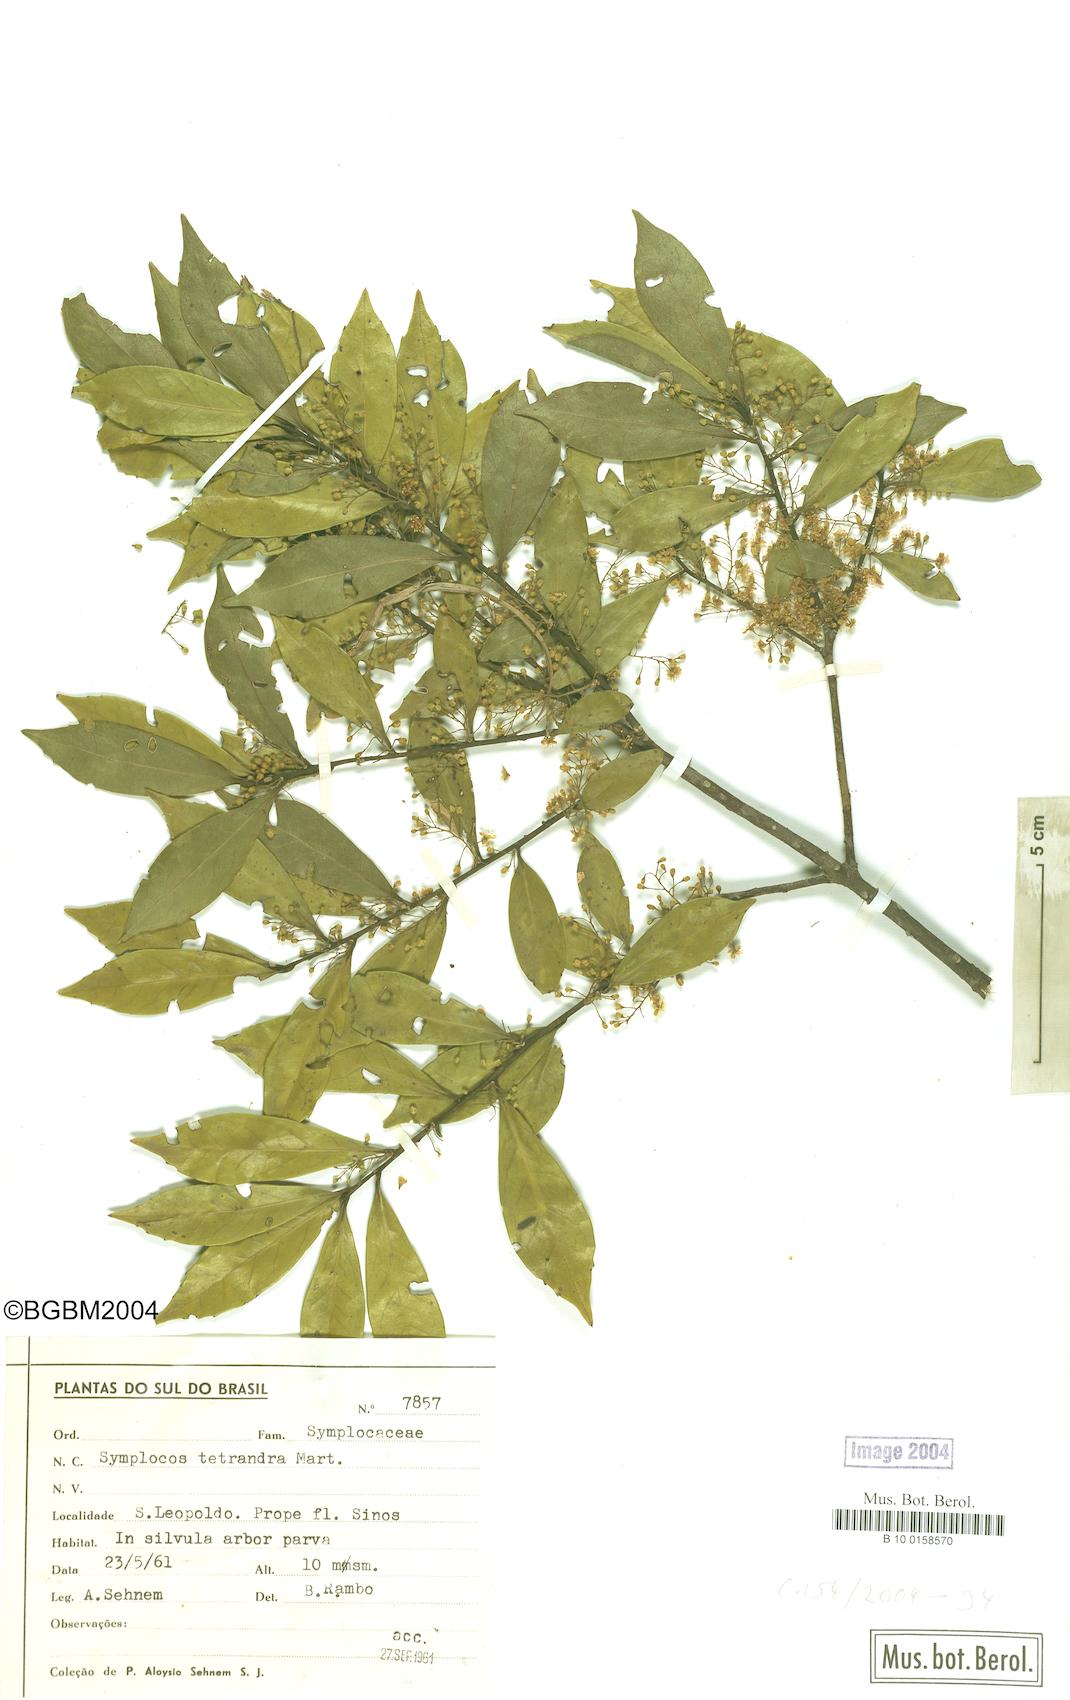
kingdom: Plantae
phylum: Tracheophyta
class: Magnoliopsida
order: Ericales
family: Symplocaceae
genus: Symplocos
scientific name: Symplocos tetrandra
